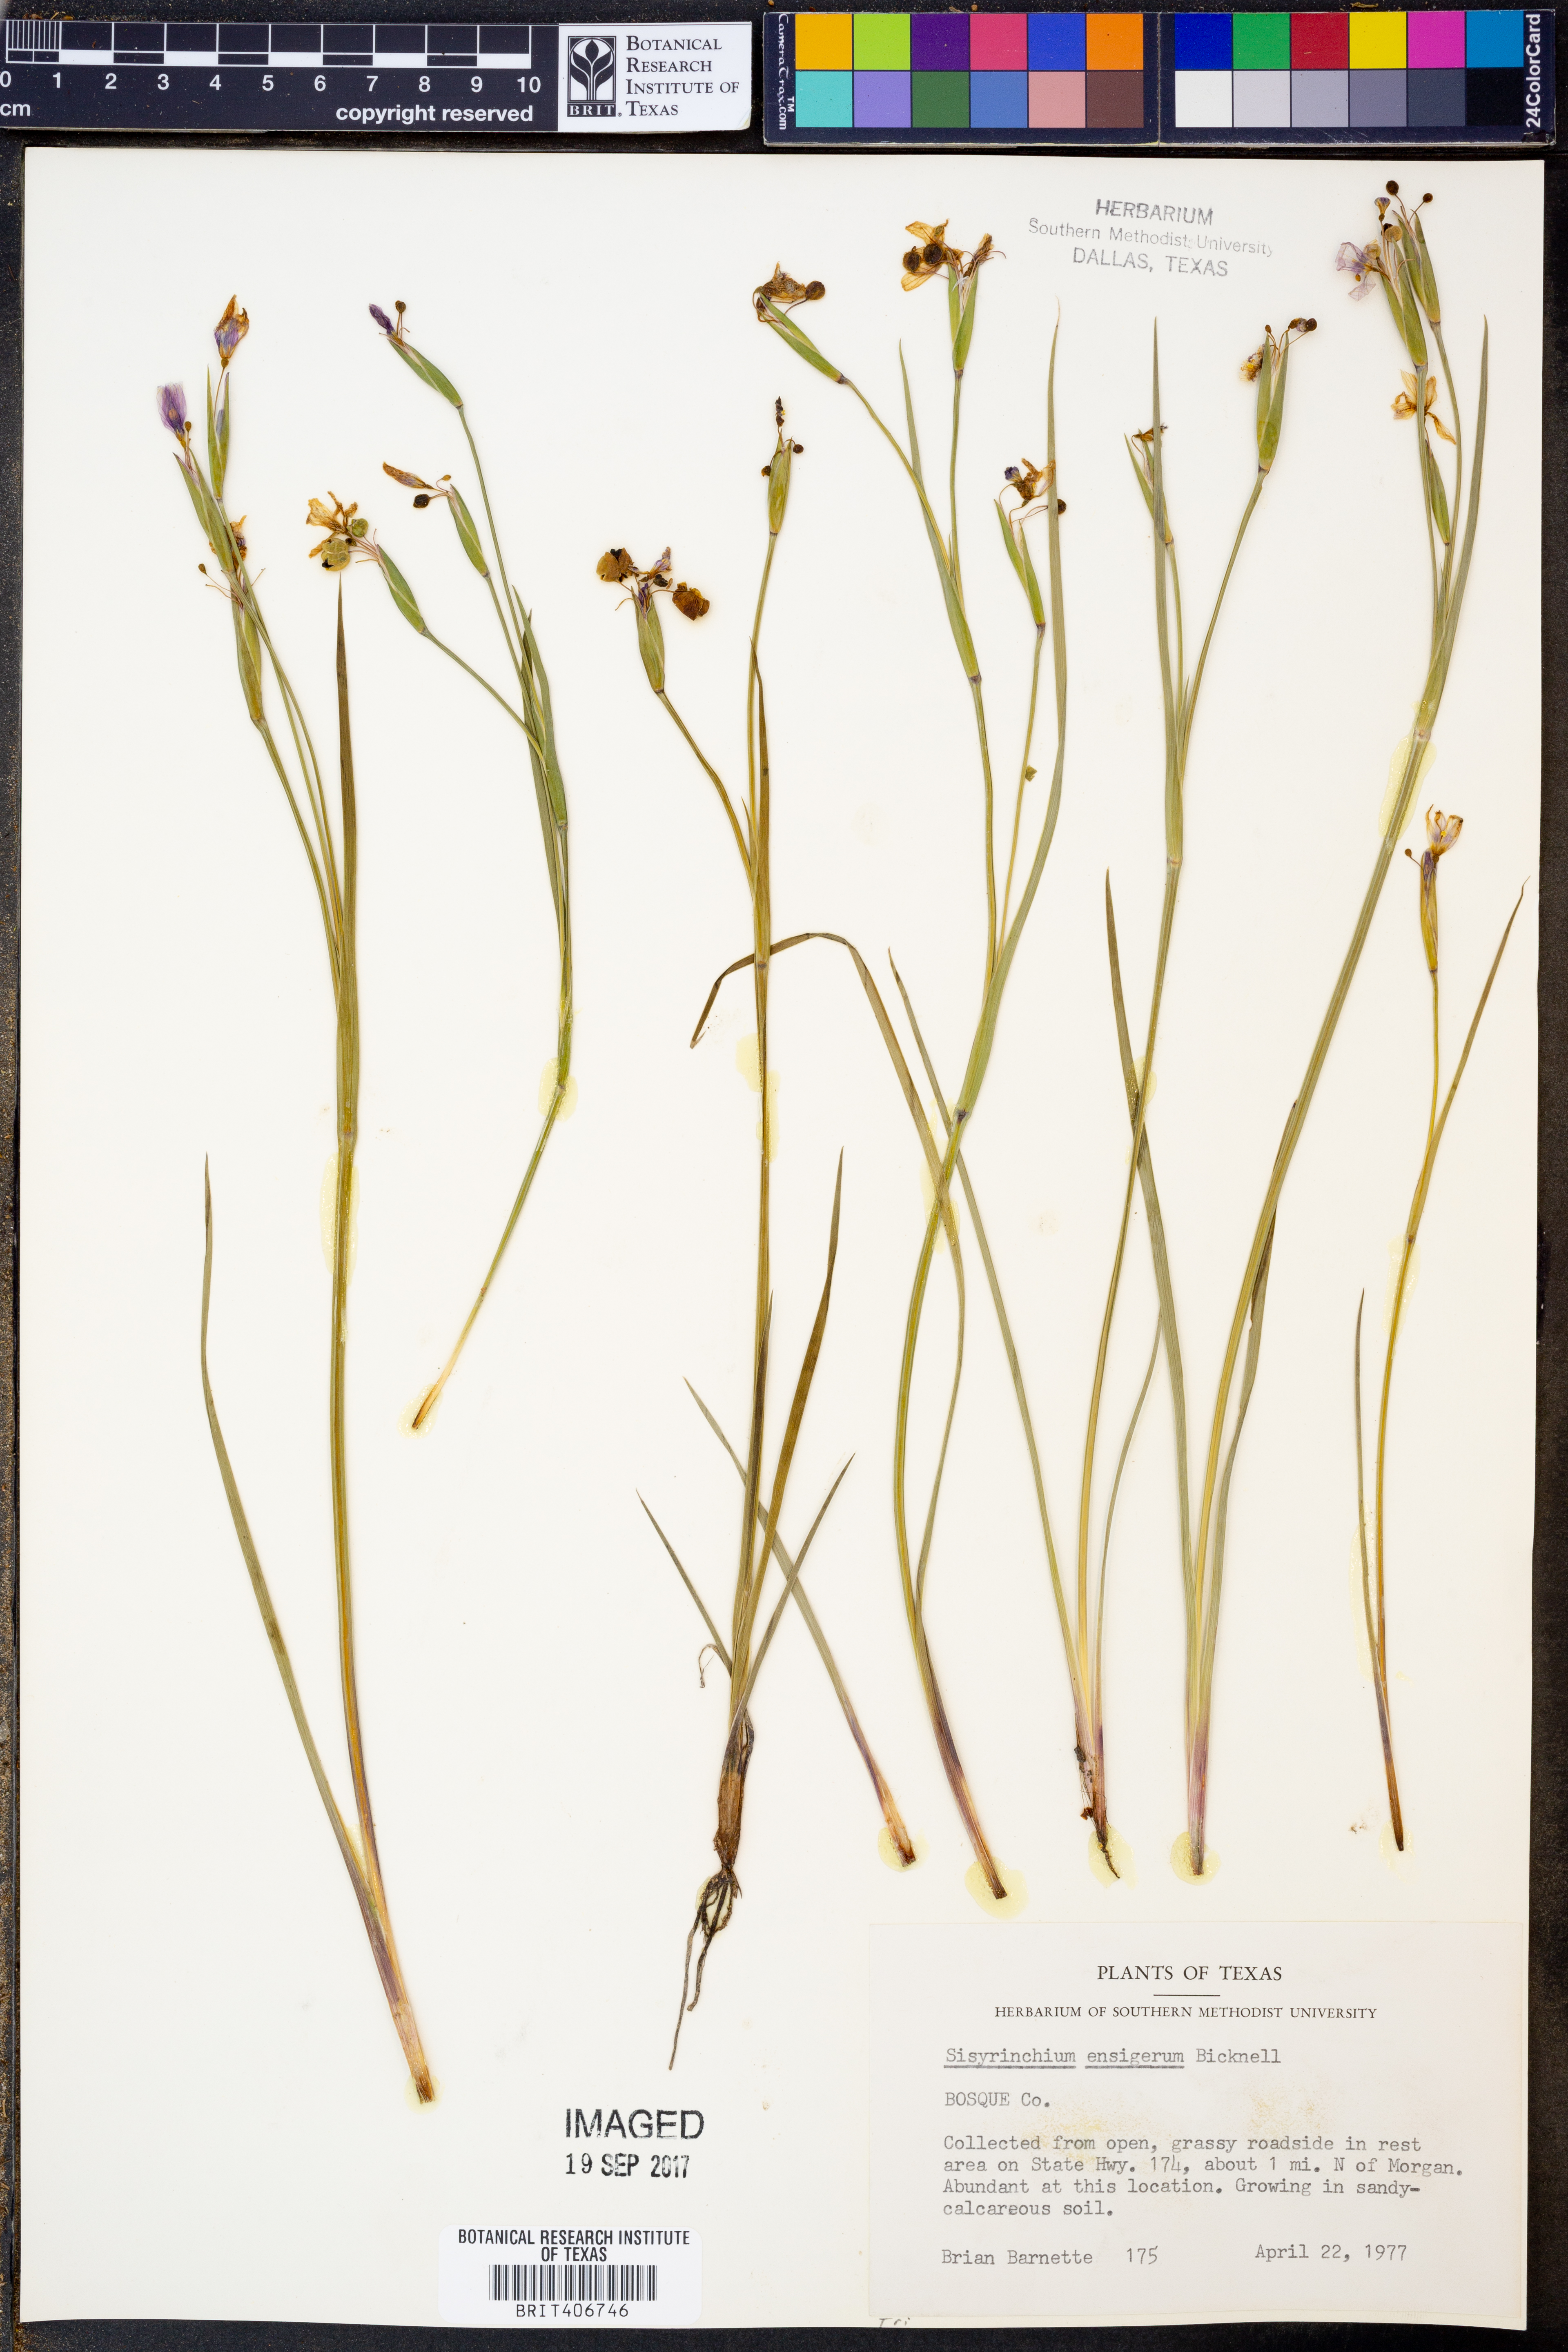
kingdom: Plantae
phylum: Tracheophyta
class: Liliopsida
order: Asparagales
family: Iridaceae
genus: Sisyrinchium
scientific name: Sisyrinchium ensigerum
